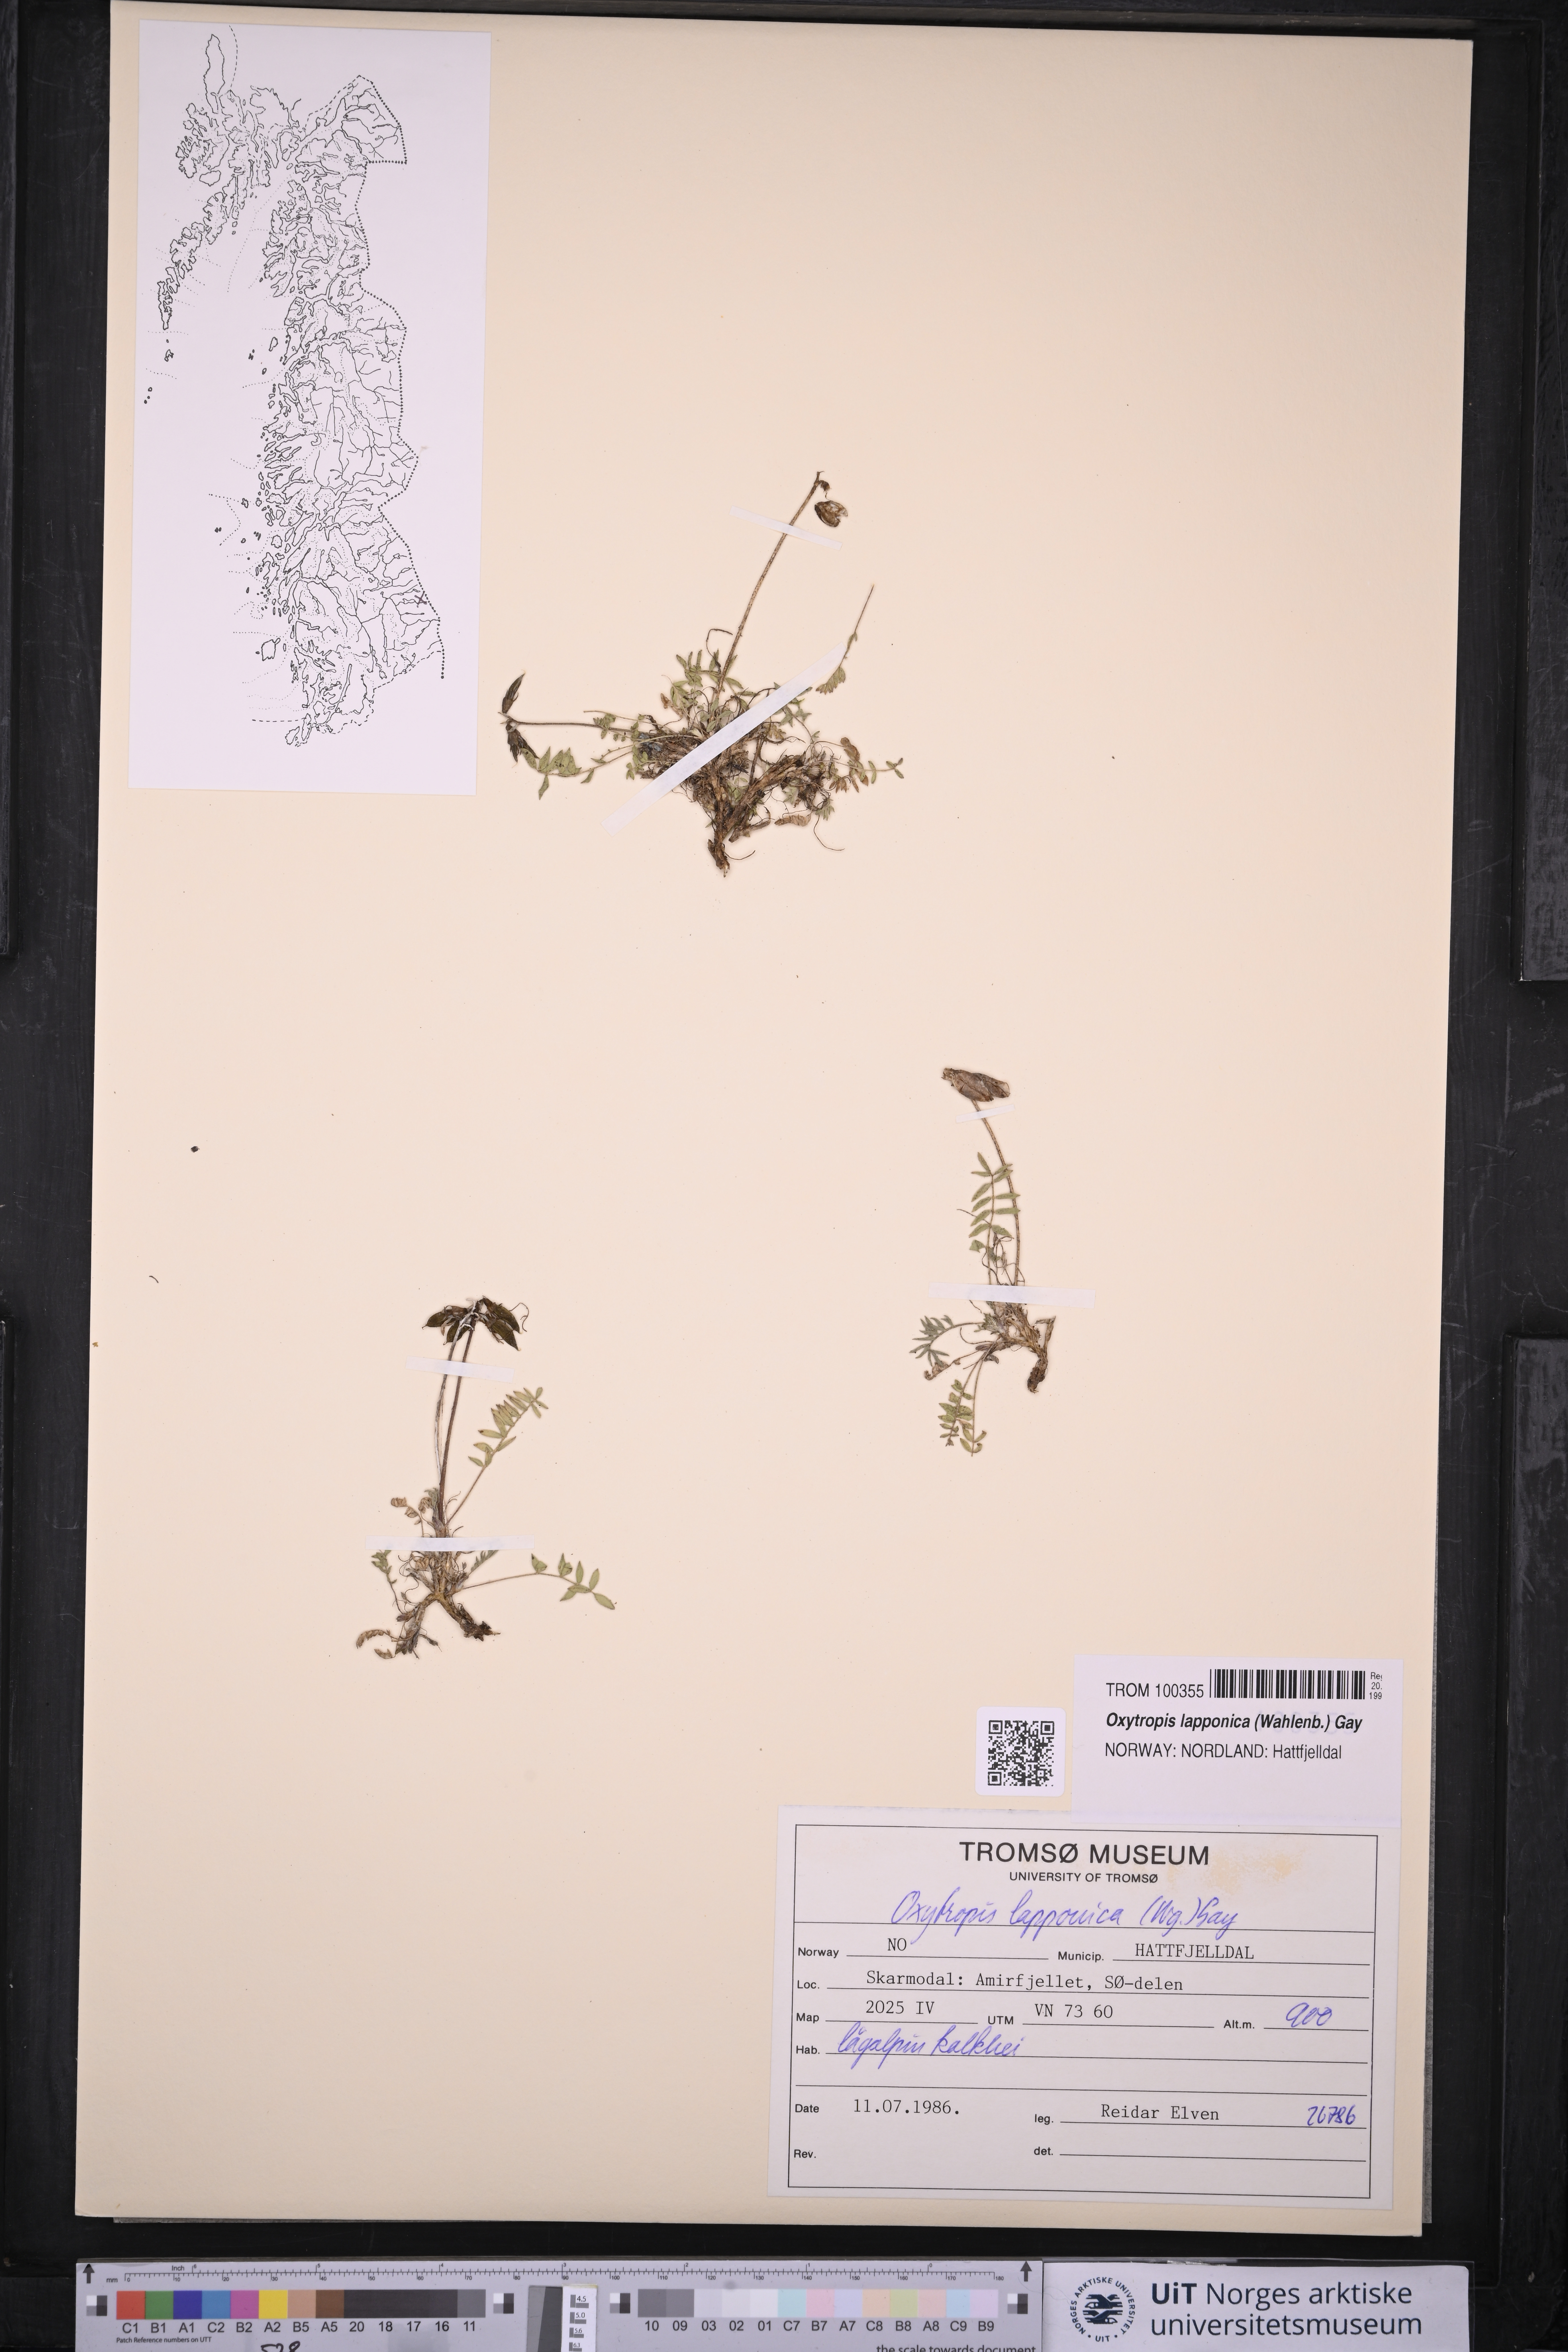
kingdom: Plantae
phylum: Tracheophyta
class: Magnoliopsida
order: Fabales
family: Fabaceae
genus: Oxytropis
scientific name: Oxytropis lapponica
